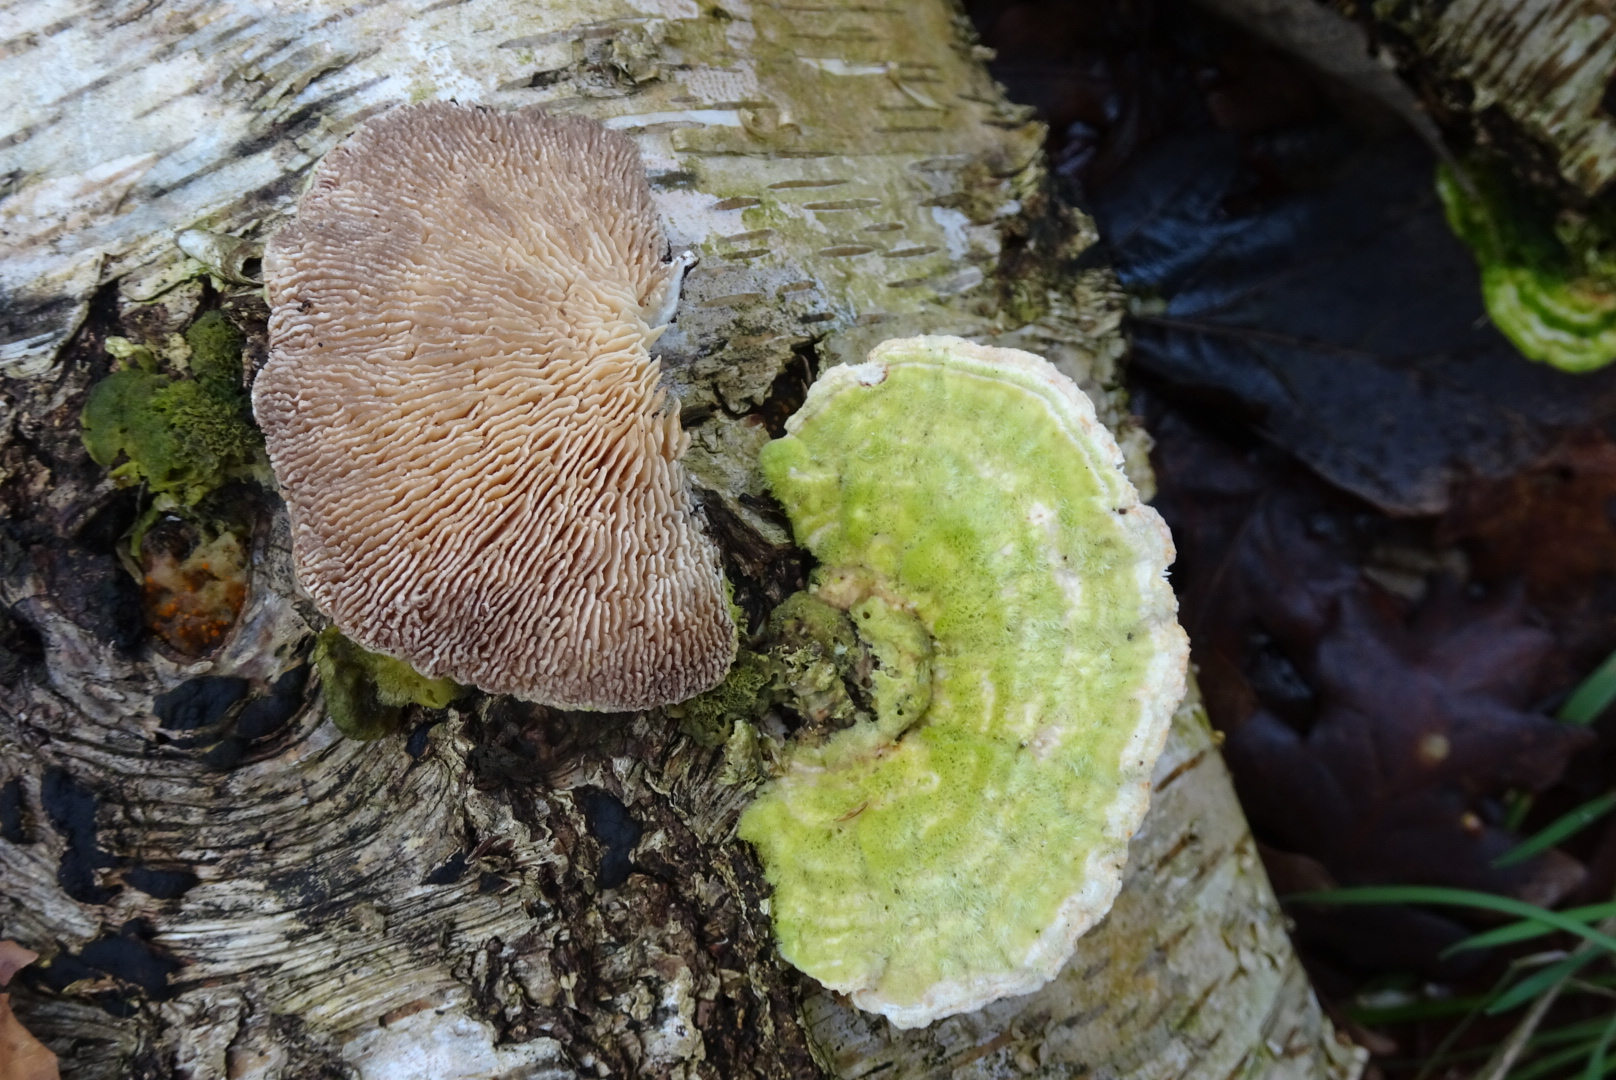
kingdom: Fungi
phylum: Basidiomycota
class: Agaricomycetes
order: Polyporales
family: Polyporaceae
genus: Lenzites
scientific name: Lenzites betulinus
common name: birke-læderporesvamp
